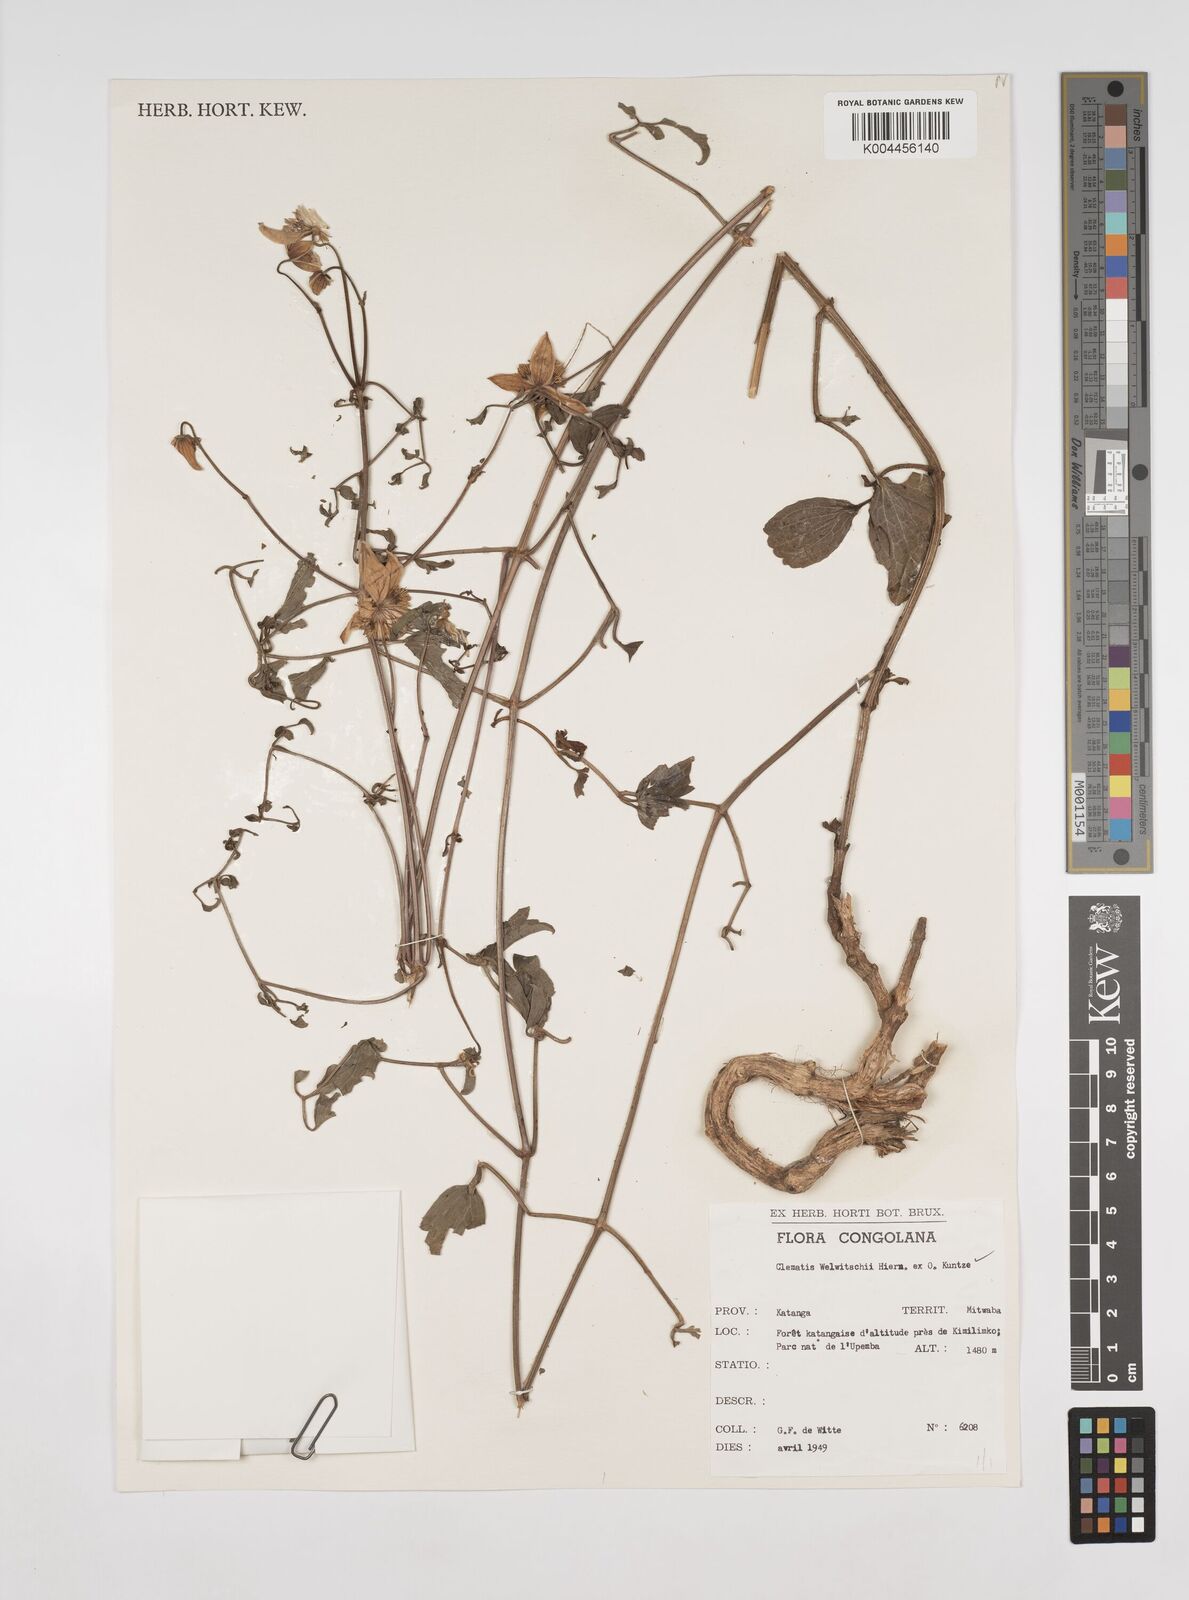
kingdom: Plantae
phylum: Tracheophyta
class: Magnoliopsida
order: Ranunculales
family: Ranunculaceae
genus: Clematis
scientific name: Clematis welwitschii
